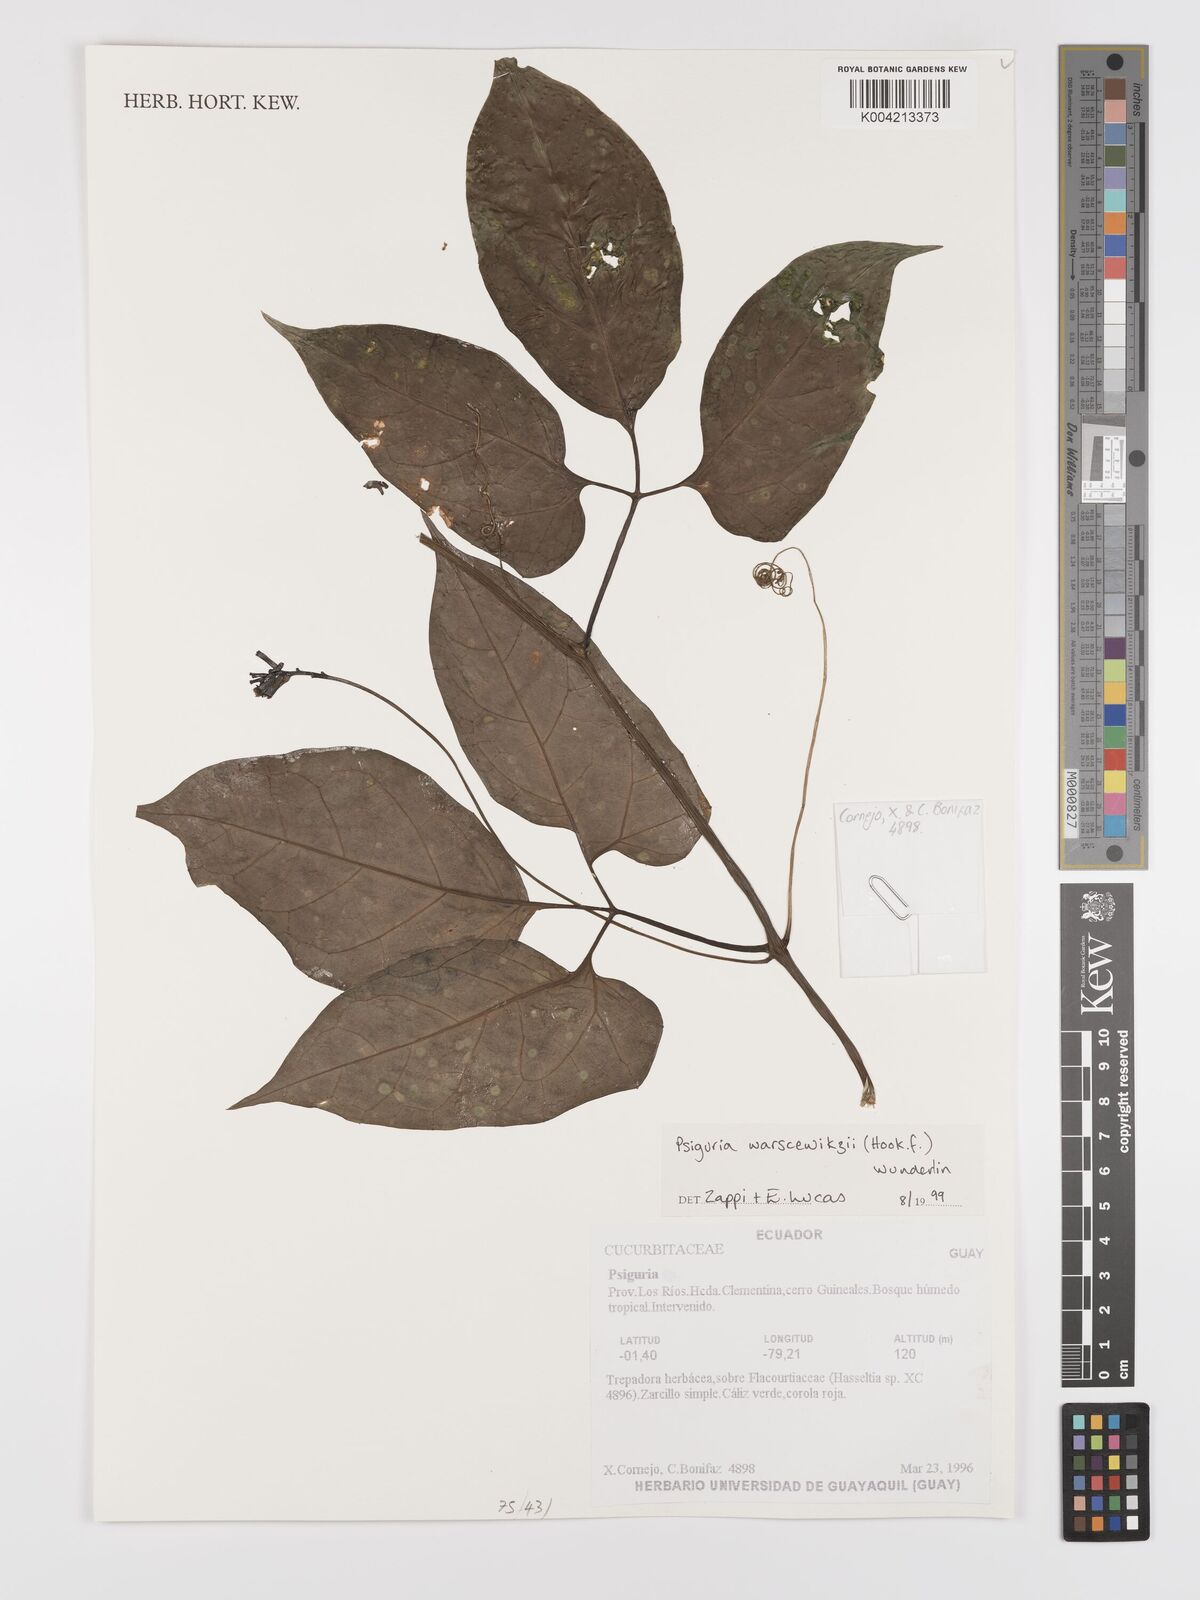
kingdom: Plantae
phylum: Tracheophyta
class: Magnoliopsida
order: Cucurbitales
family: Cucurbitaceae
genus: Psiguria
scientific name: Psiguria warscewiczii
